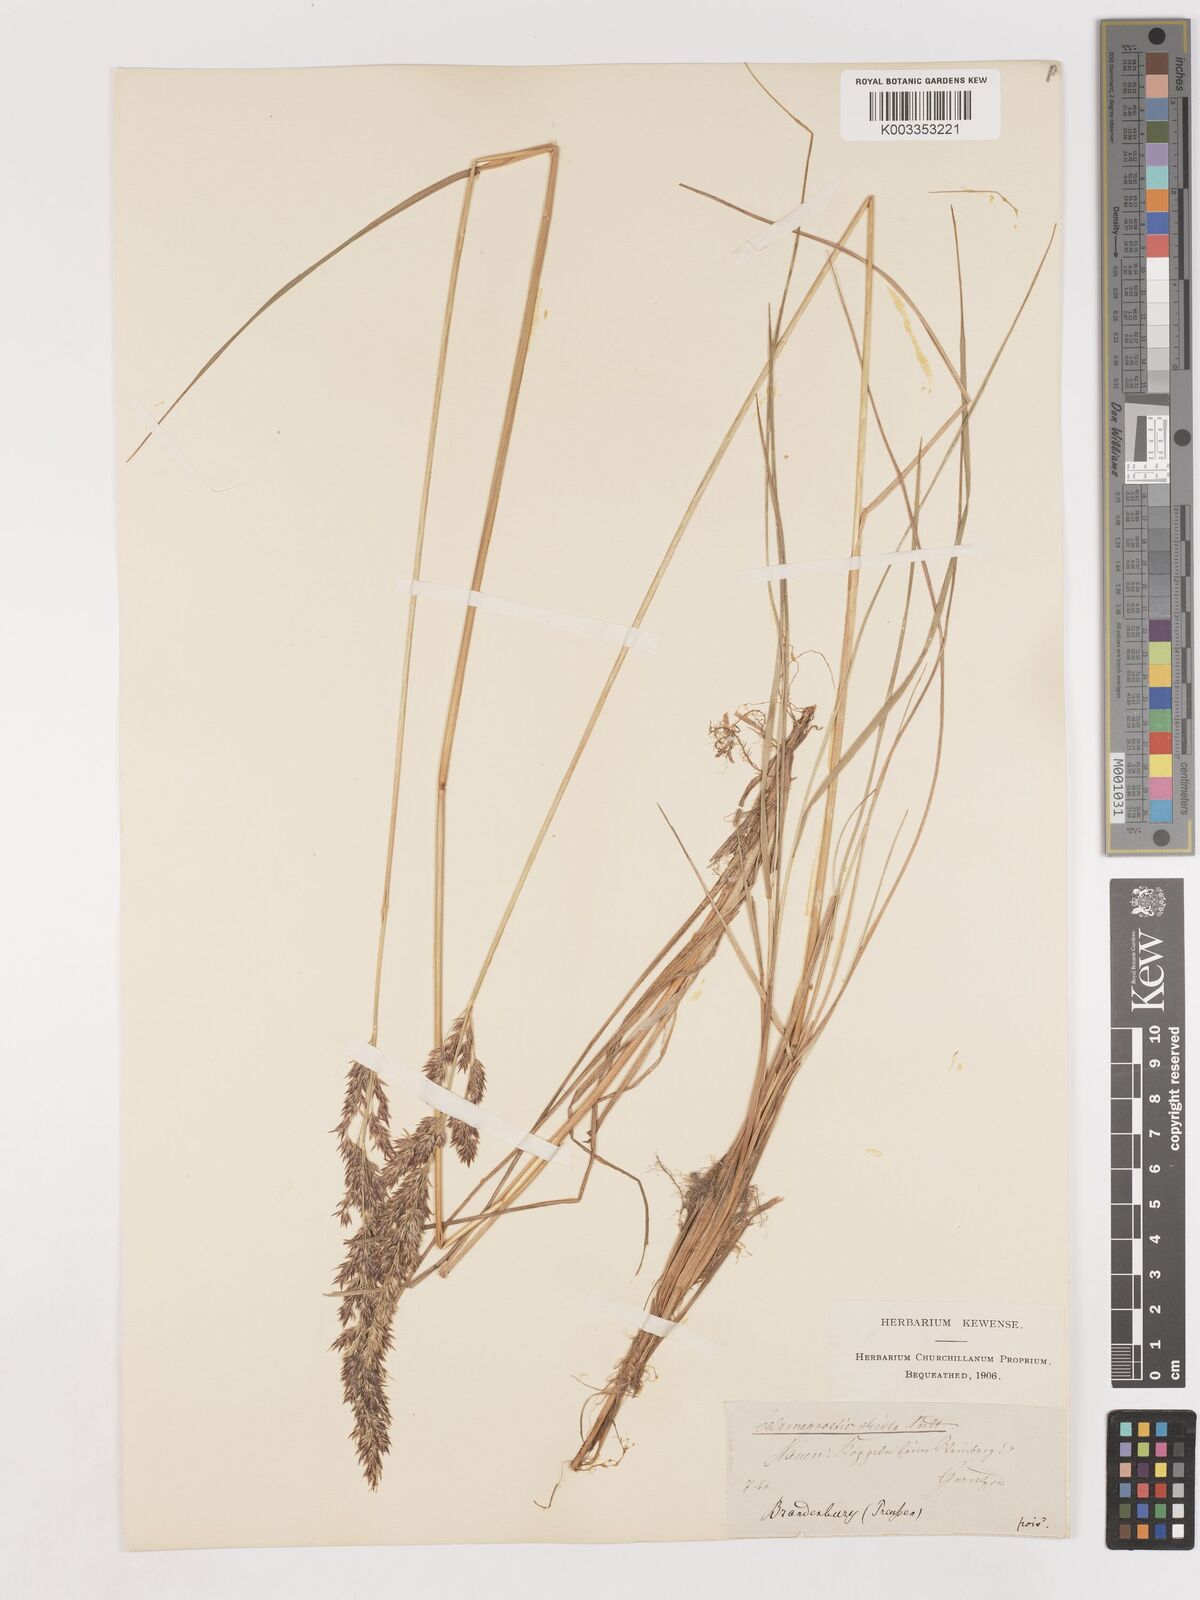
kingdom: Plantae
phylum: Tracheophyta
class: Liliopsida
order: Poales
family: Poaceae
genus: Cinnagrostis
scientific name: Cinnagrostis recta
